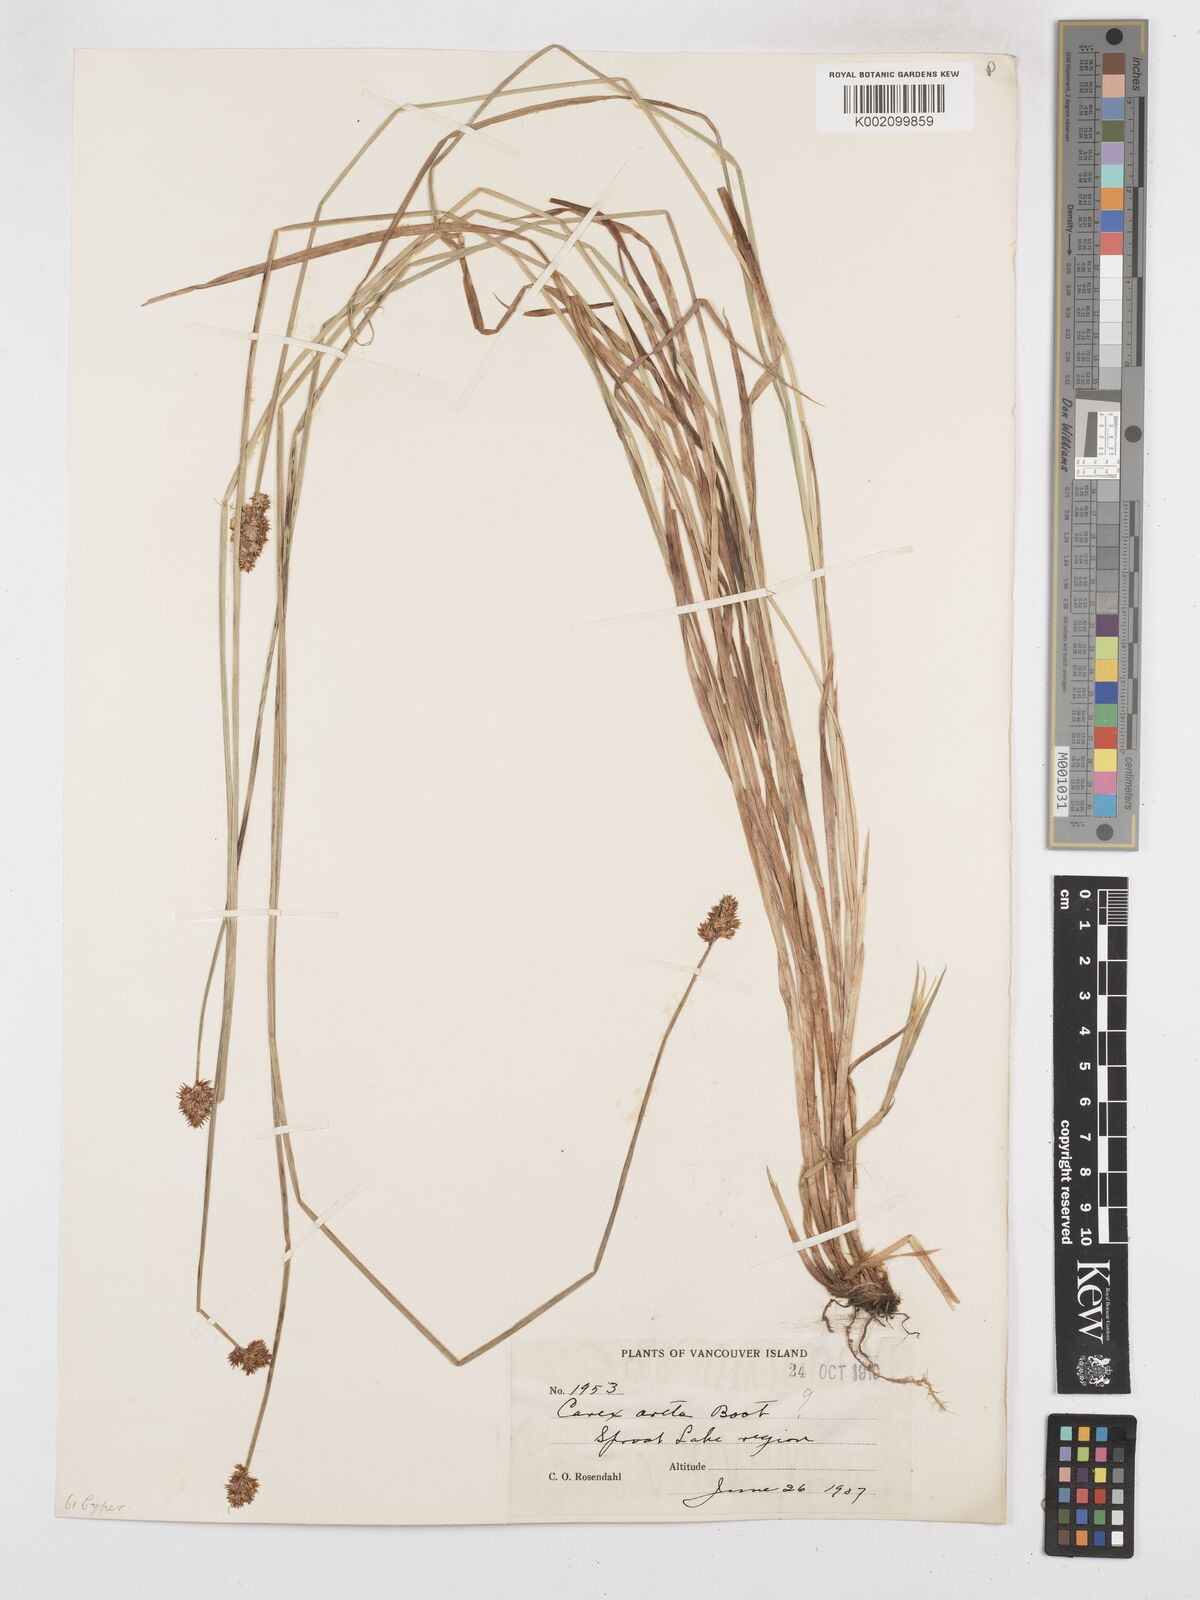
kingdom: Plantae
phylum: Tracheophyta
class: Liliopsida
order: Poales
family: Cyperaceae
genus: Carex
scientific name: Carex arcta
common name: Bear sedge
